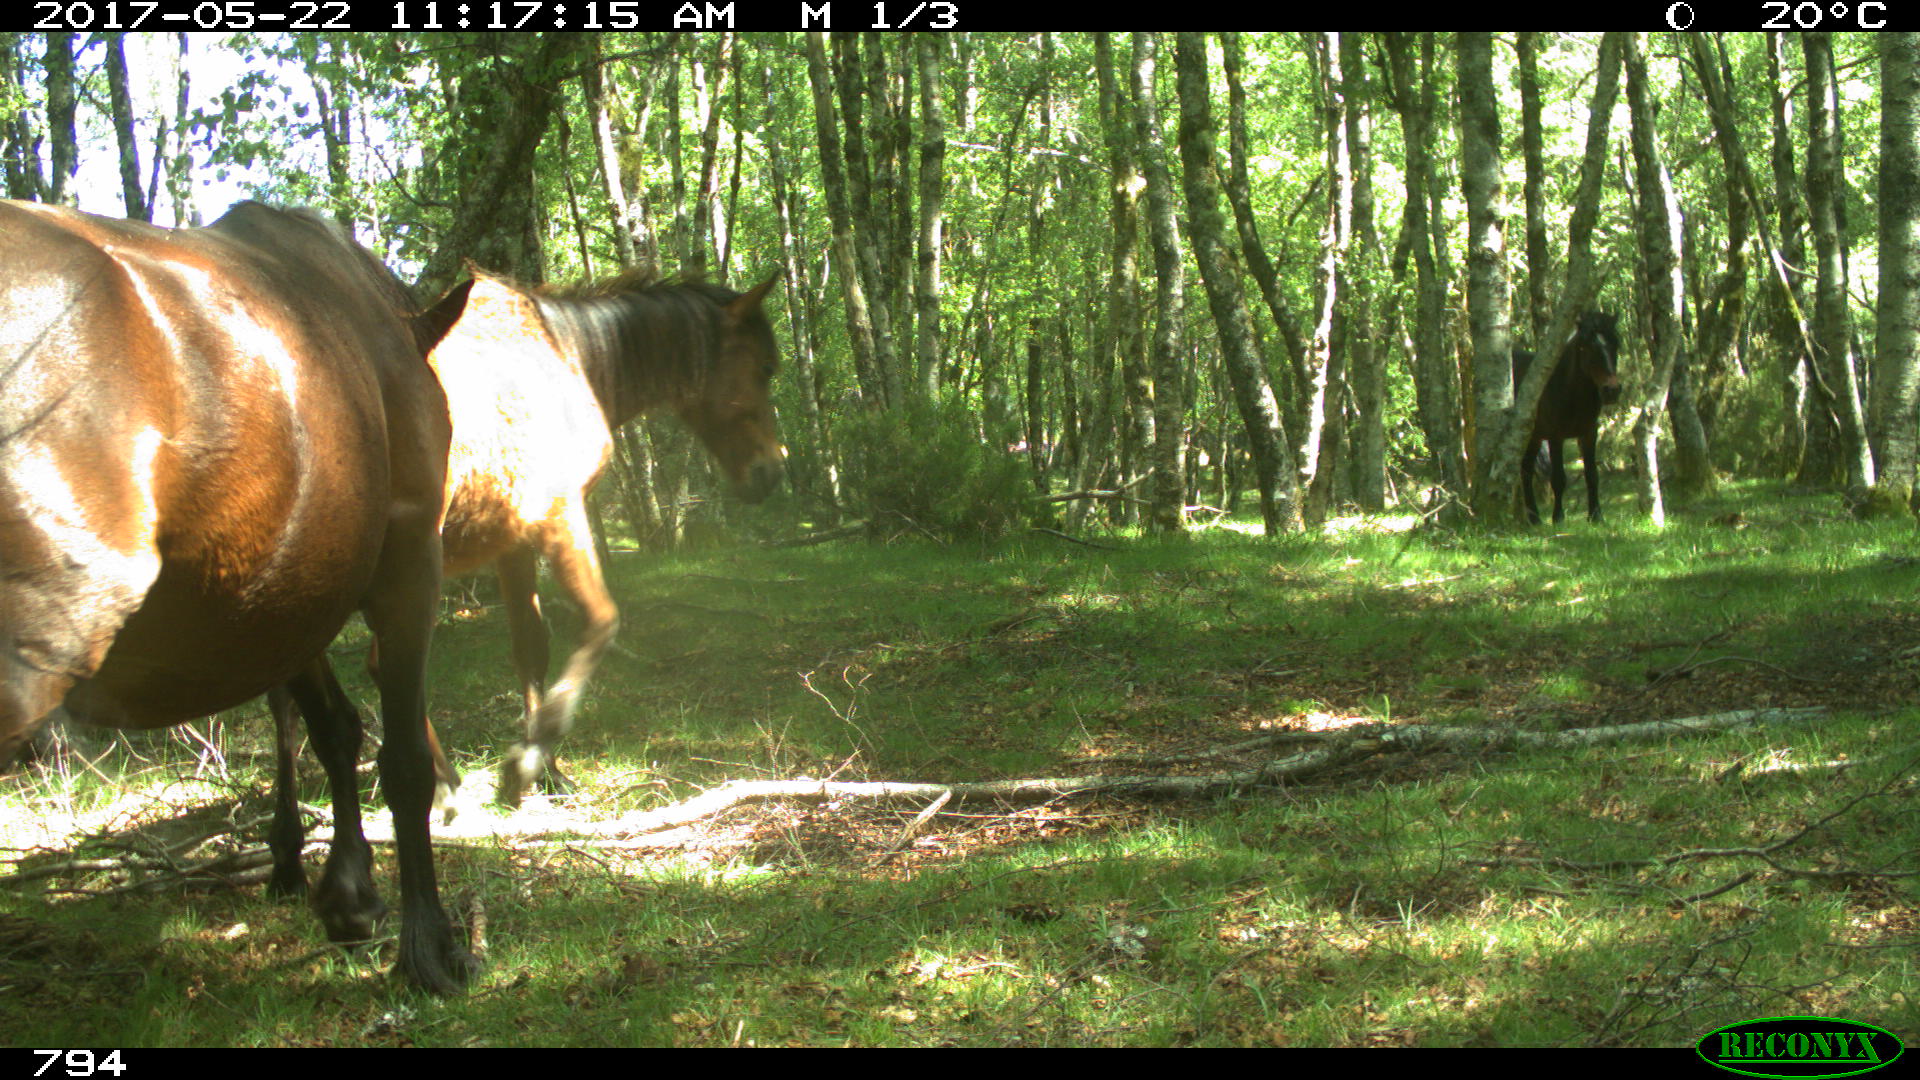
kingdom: Animalia
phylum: Chordata
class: Mammalia
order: Perissodactyla
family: Equidae
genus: Equus
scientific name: Equus caballus
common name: Horse
